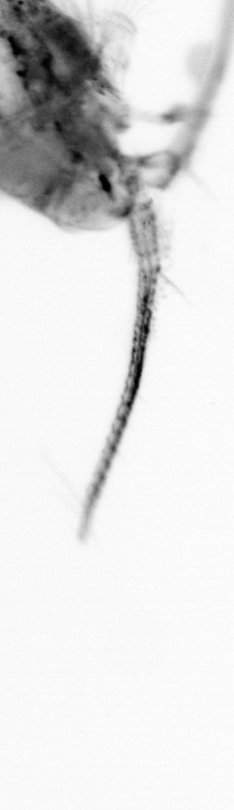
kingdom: Animalia
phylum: Arthropoda
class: Copepoda
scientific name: Copepoda
